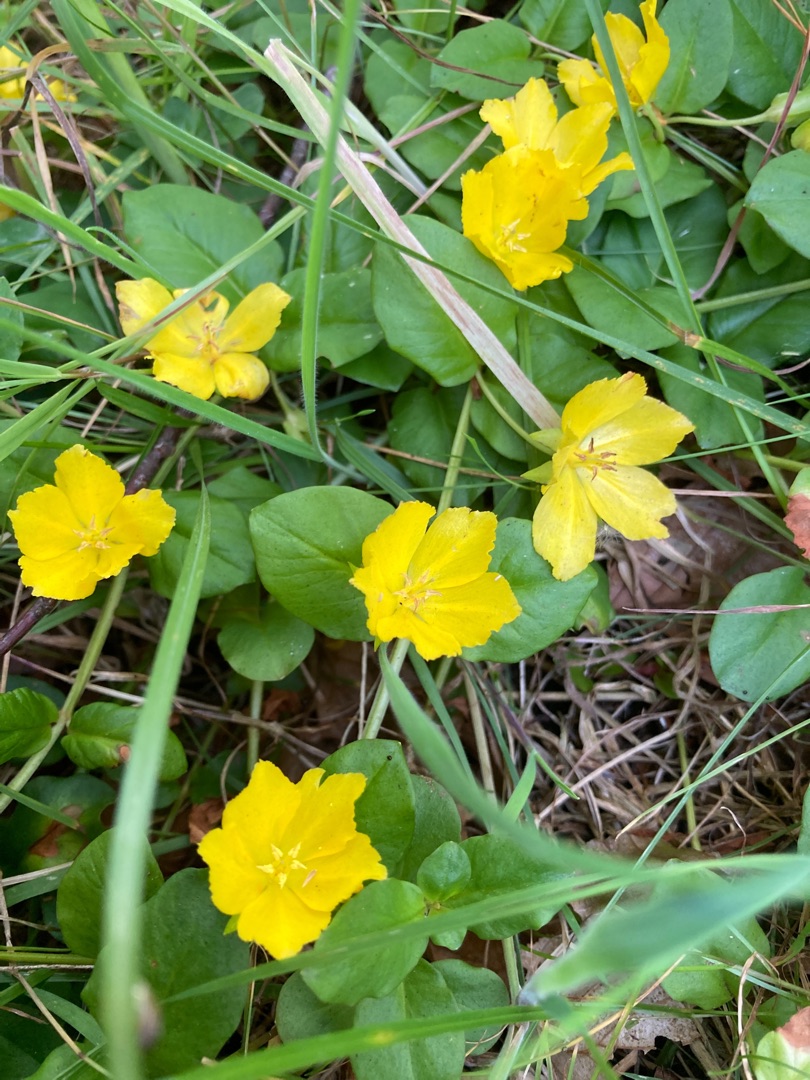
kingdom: Plantae
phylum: Tracheophyta
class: Magnoliopsida
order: Ericales
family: Primulaceae
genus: Lysimachia
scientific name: Lysimachia nummularia
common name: Pengebladet fredløs
